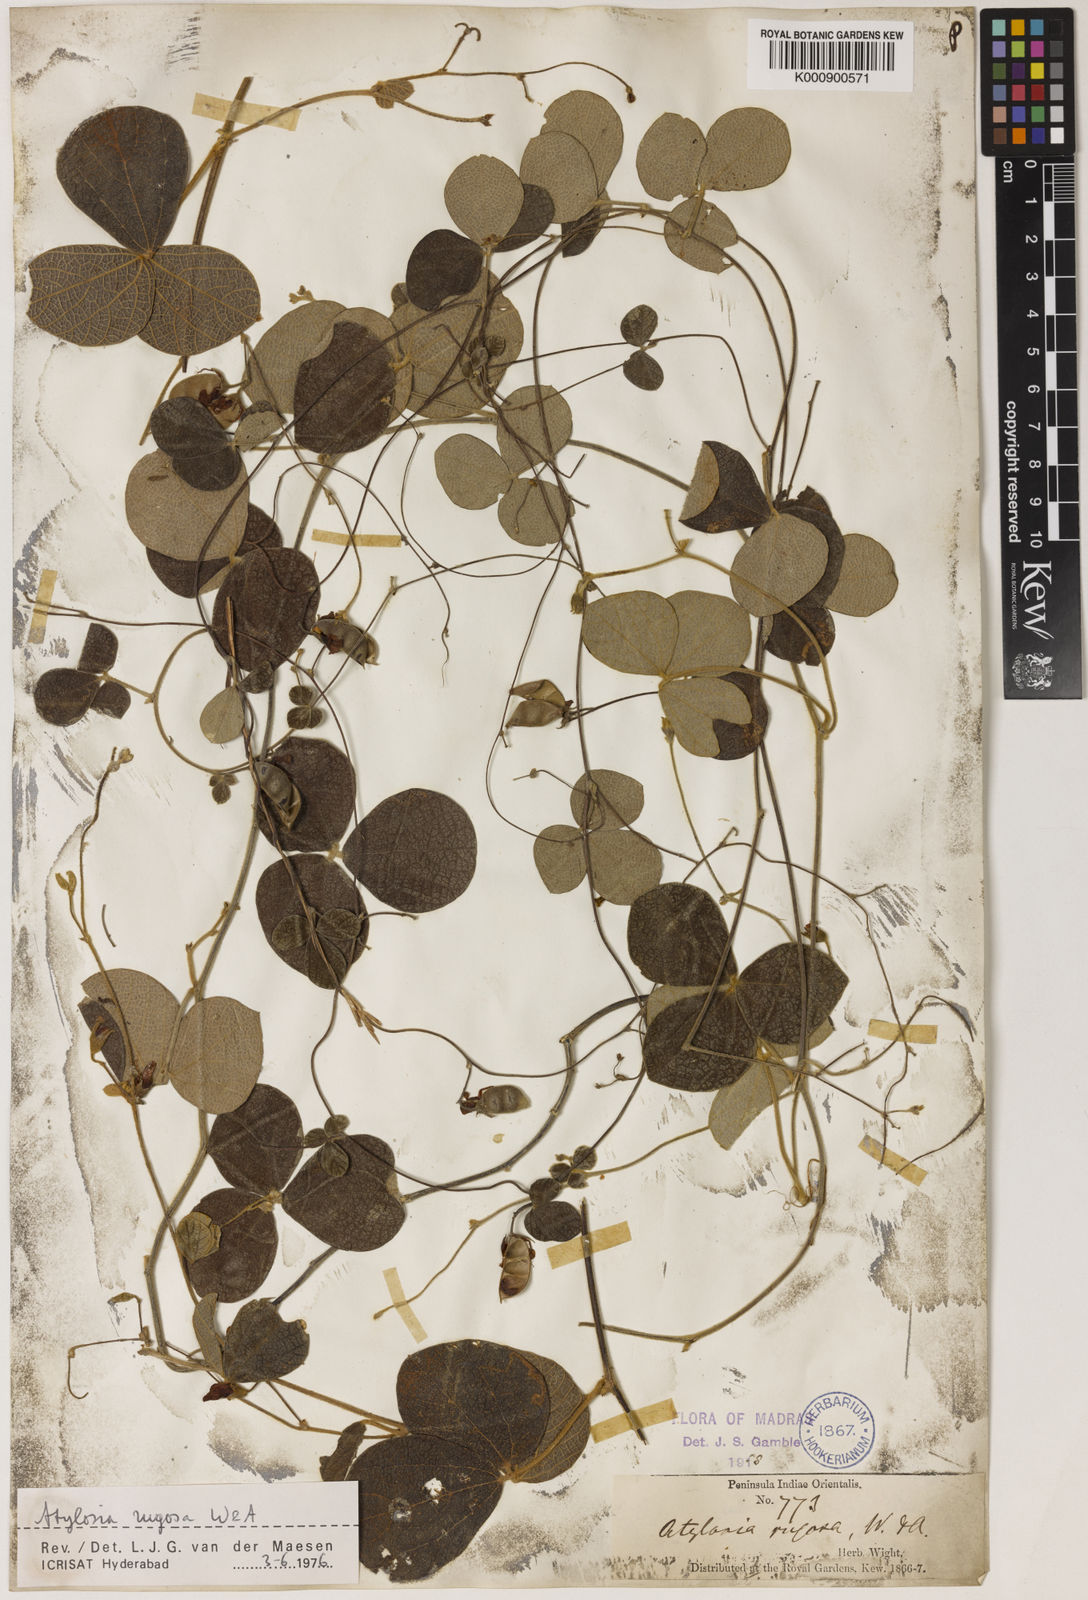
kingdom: Plantae
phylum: Tracheophyta
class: Magnoliopsida
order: Fabales
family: Fabaceae
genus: Cajanus
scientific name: Cajanus rugosus
